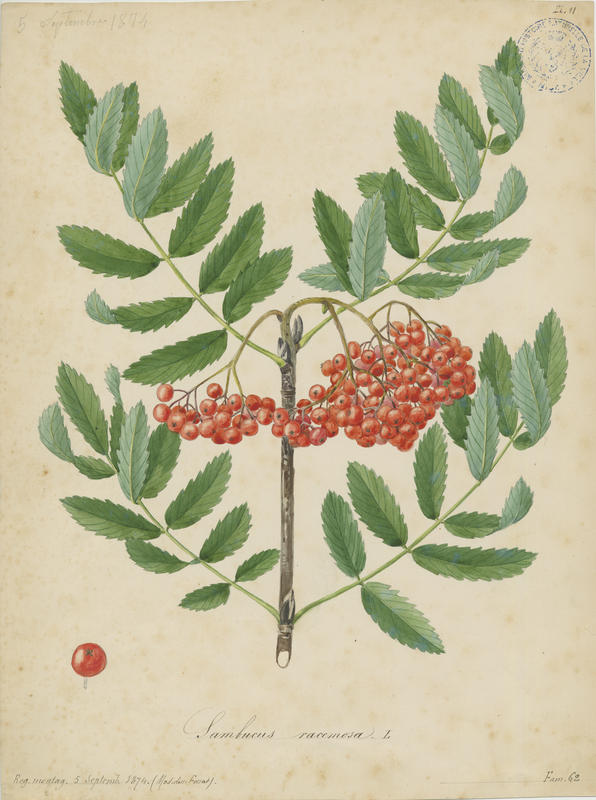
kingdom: Plantae
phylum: Tracheophyta
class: Magnoliopsida
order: Dipsacales
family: Viburnaceae
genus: Sambucus
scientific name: Sambucus racemosa
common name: Red-berried elder
